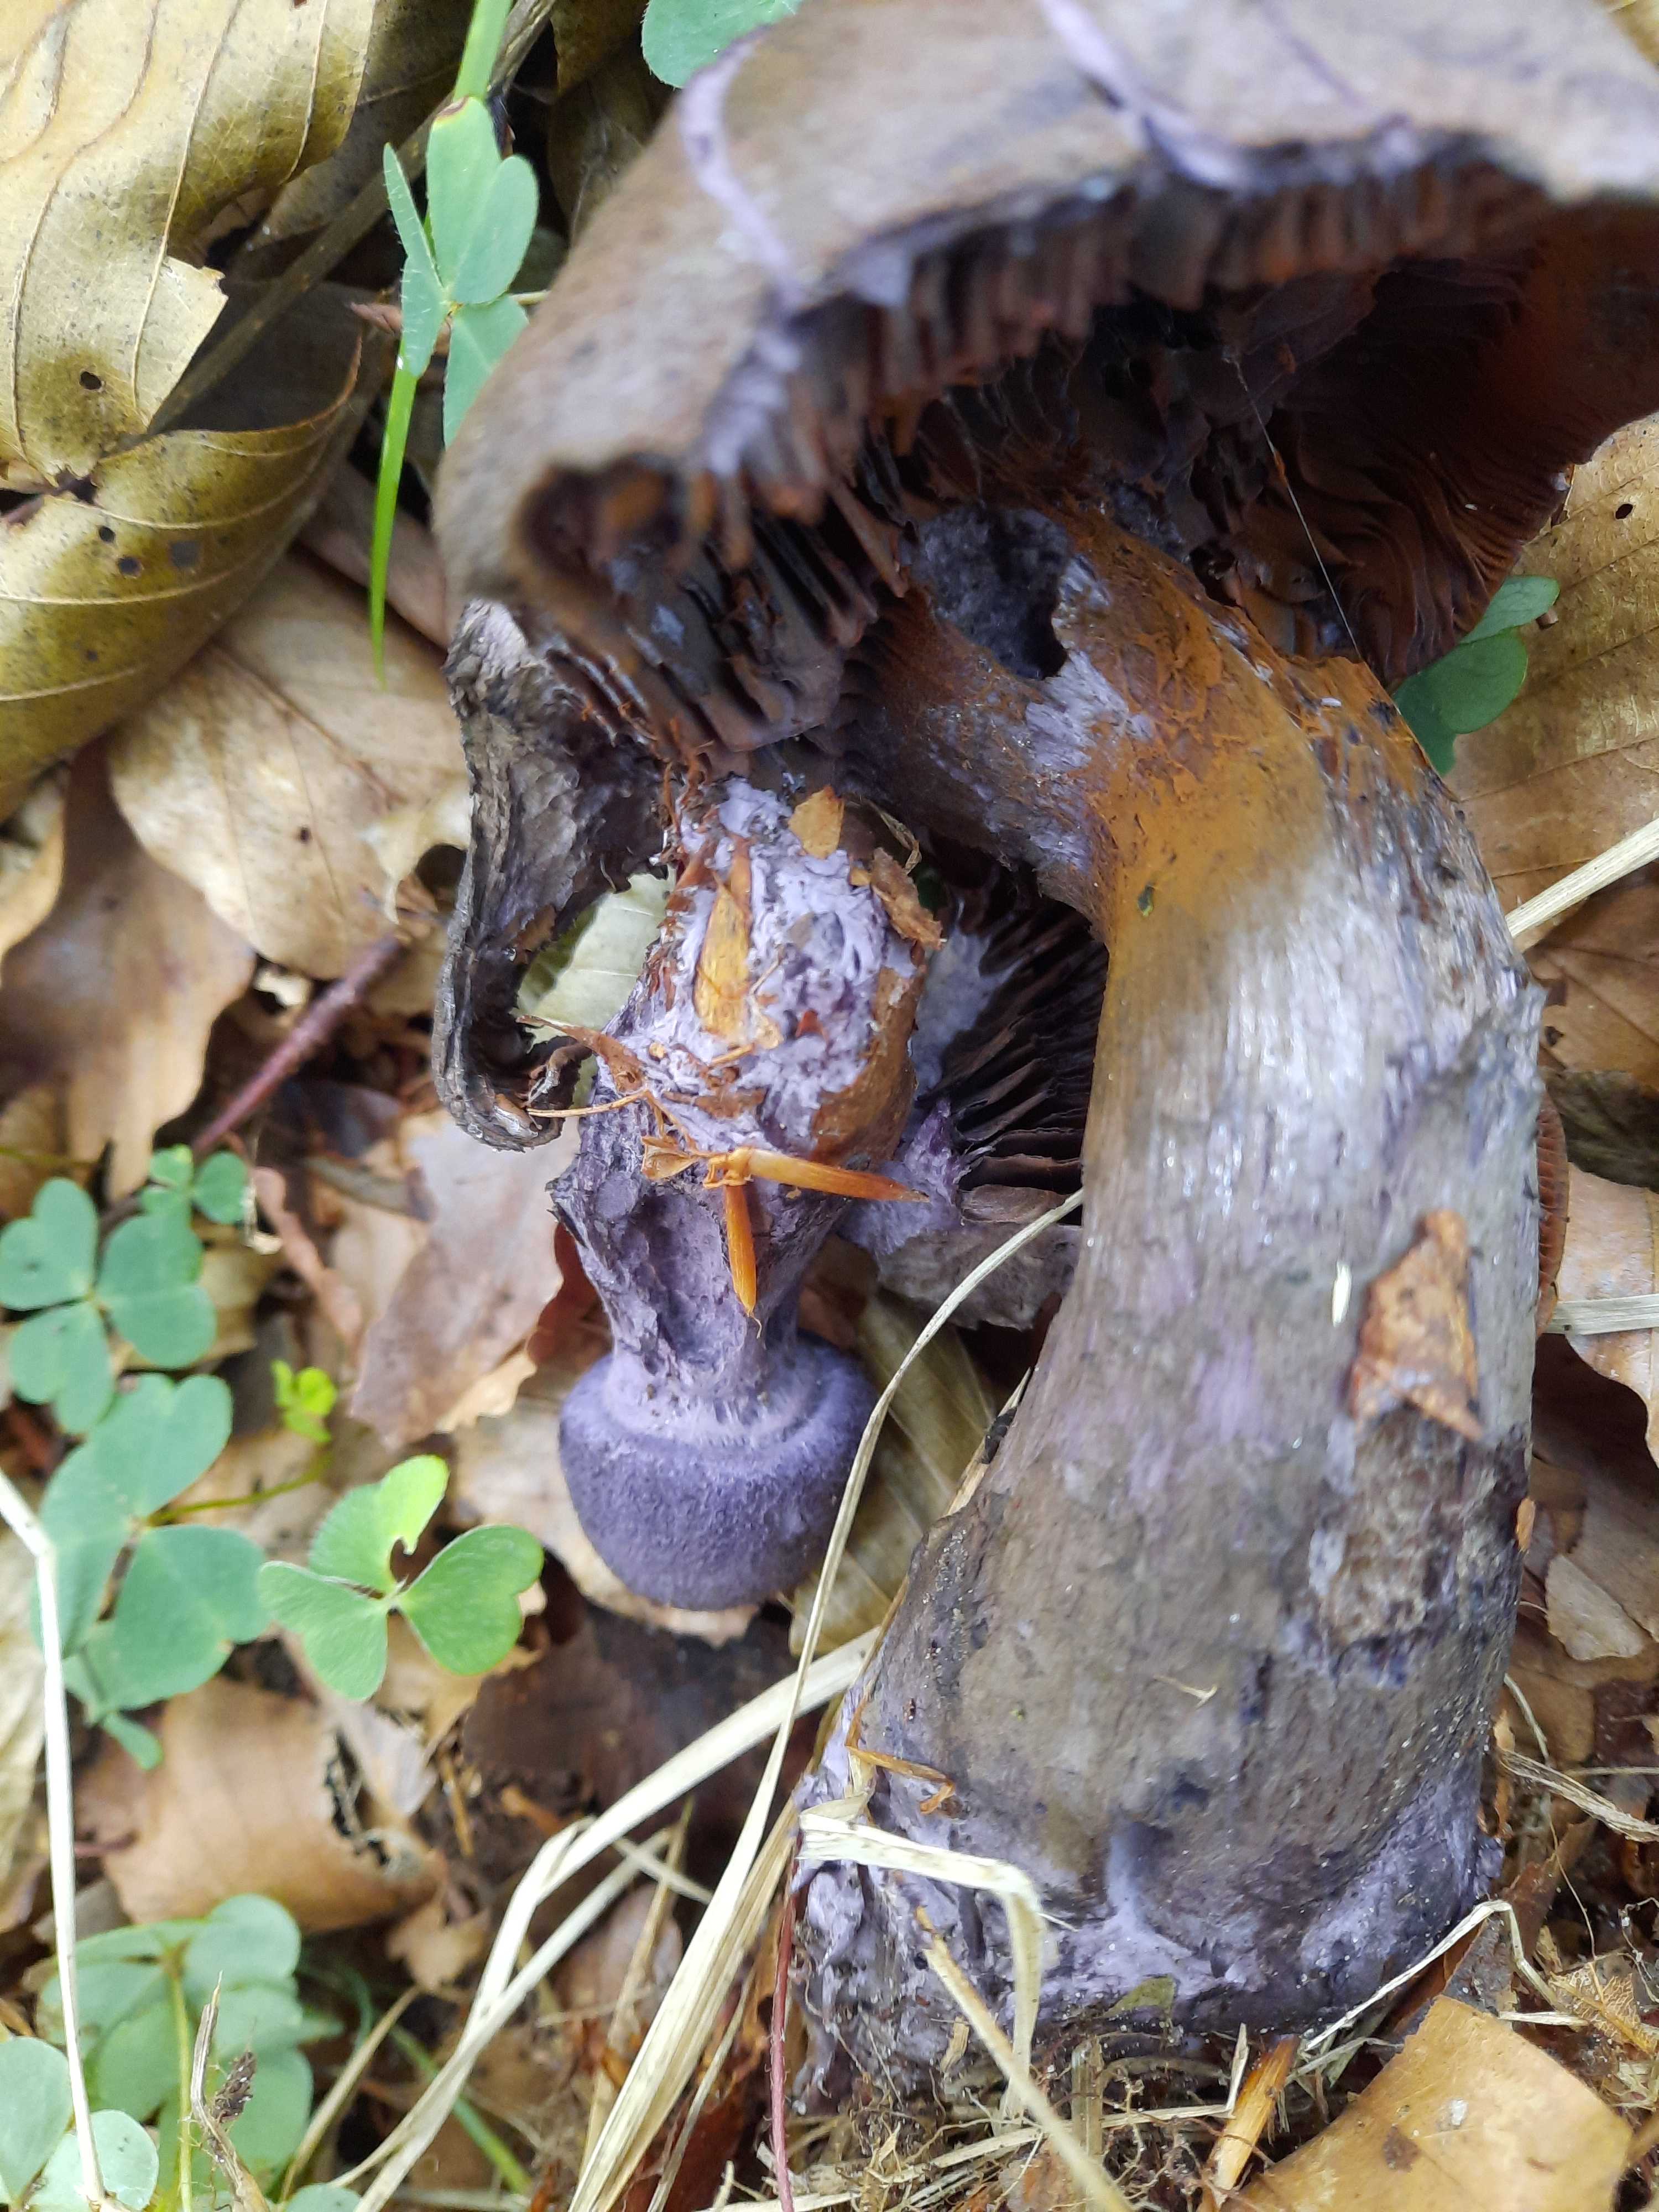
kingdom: Fungi
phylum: Basidiomycota
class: Agaricomycetes
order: Agaricales
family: Cortinariaceae
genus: Cortinarius
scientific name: Cortinarius violaceus
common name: mørkviolet slørhat
